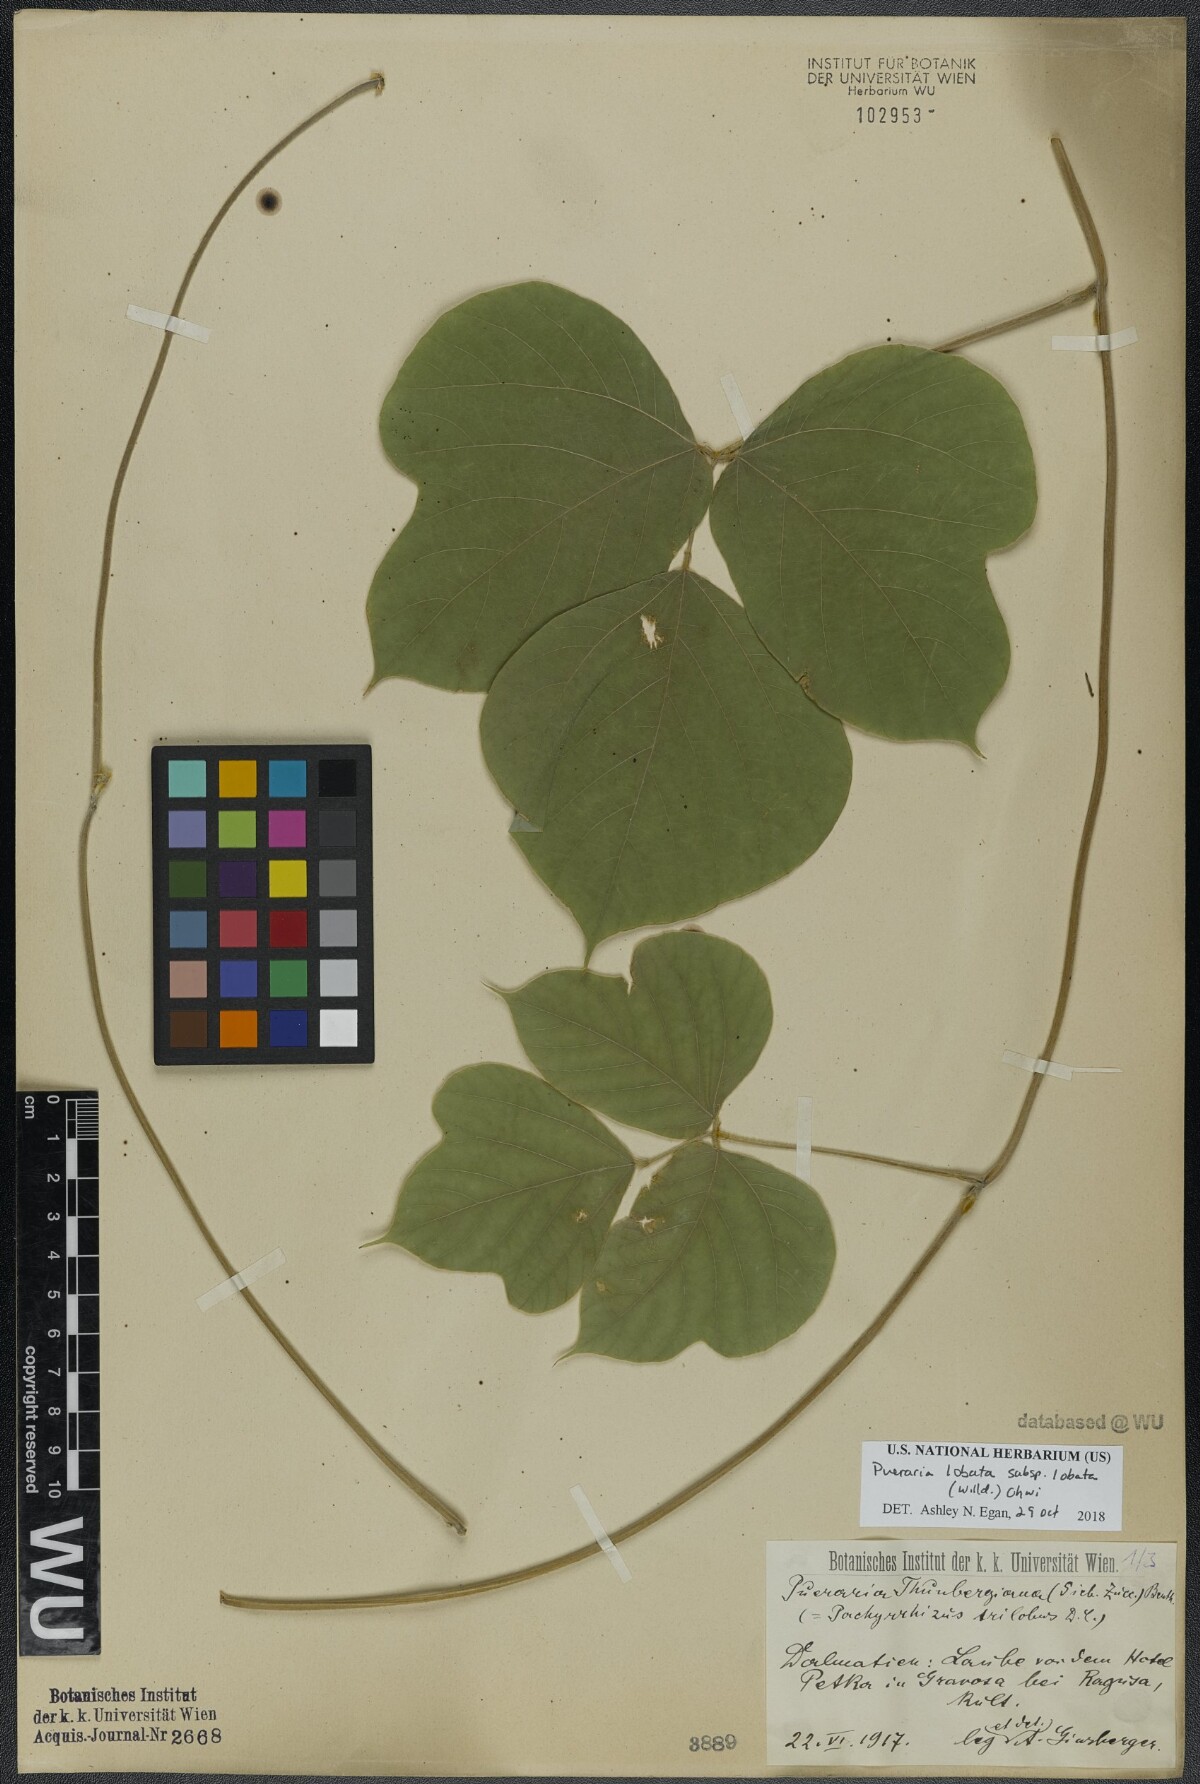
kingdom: Plantae
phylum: Tracheophyta
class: Magnoliopsida
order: Fabales
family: Fabaceae
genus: Pueraria
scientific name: Pueraria montana
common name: Kudzu
